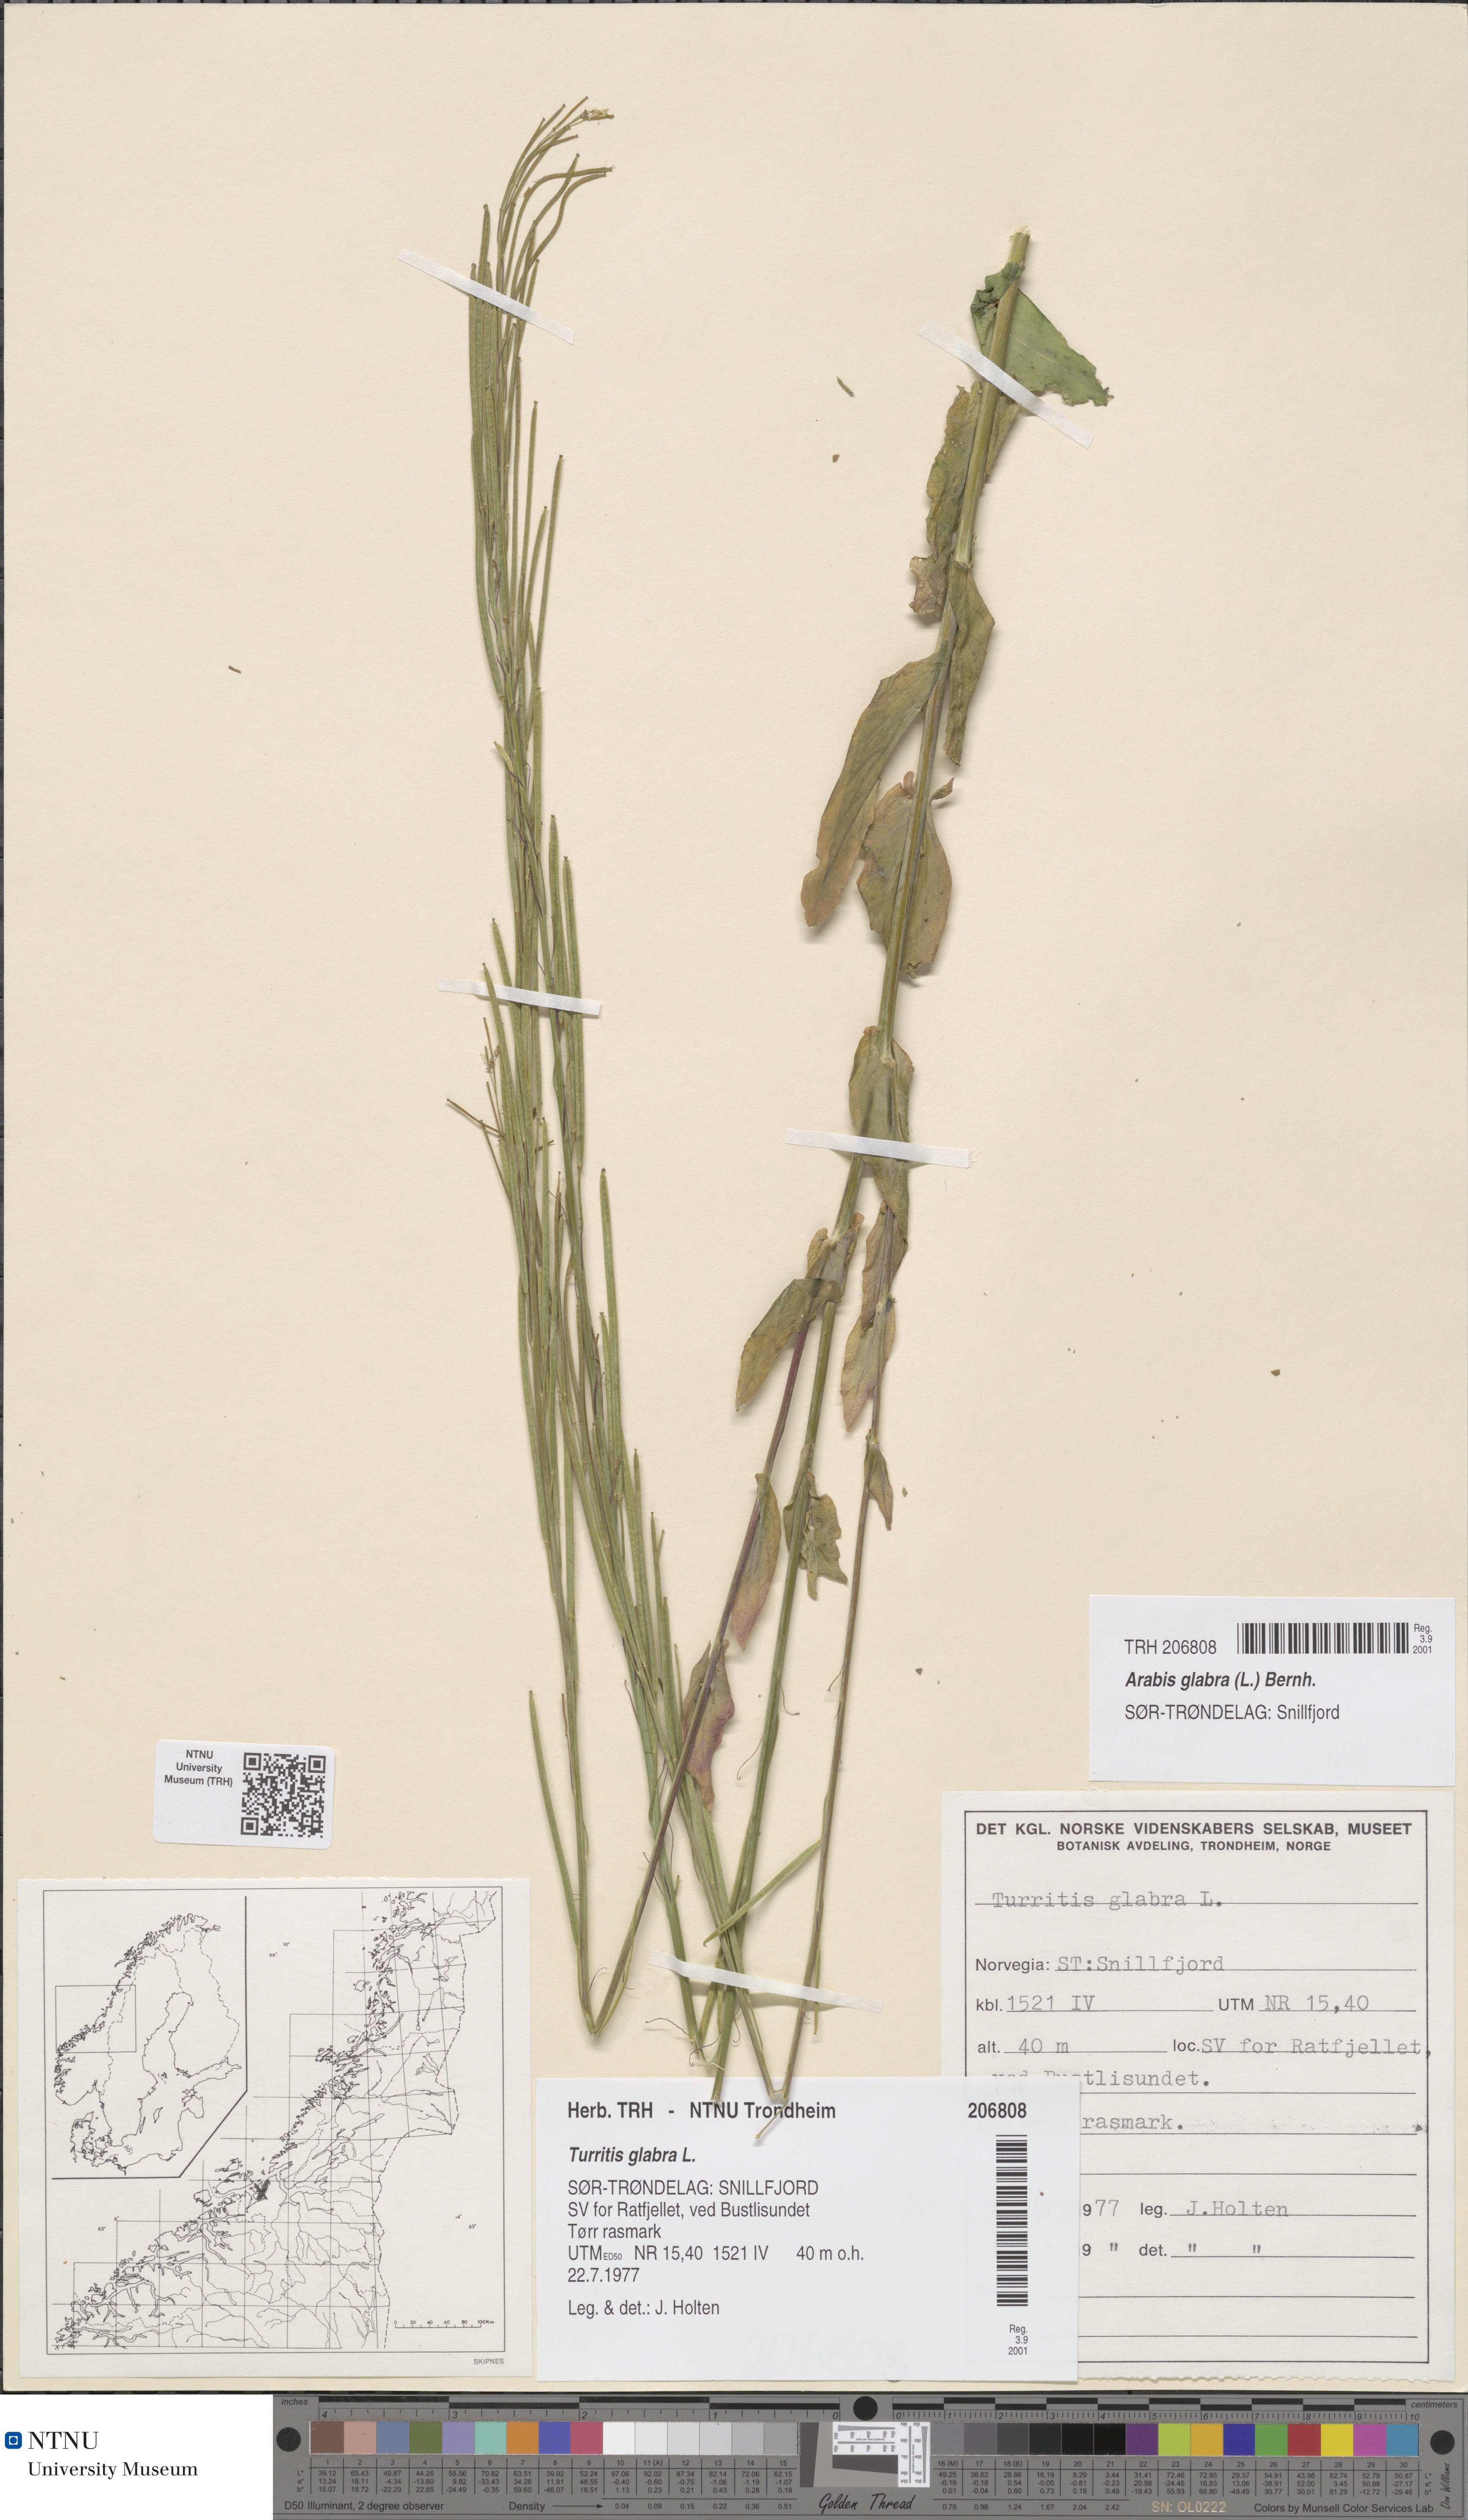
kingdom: Plantae
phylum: Tracheophyta
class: Magnoliopsida
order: Brassicales
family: Brassicaceae
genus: Turritis
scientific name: Turritis glabra
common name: Tower rockcress
